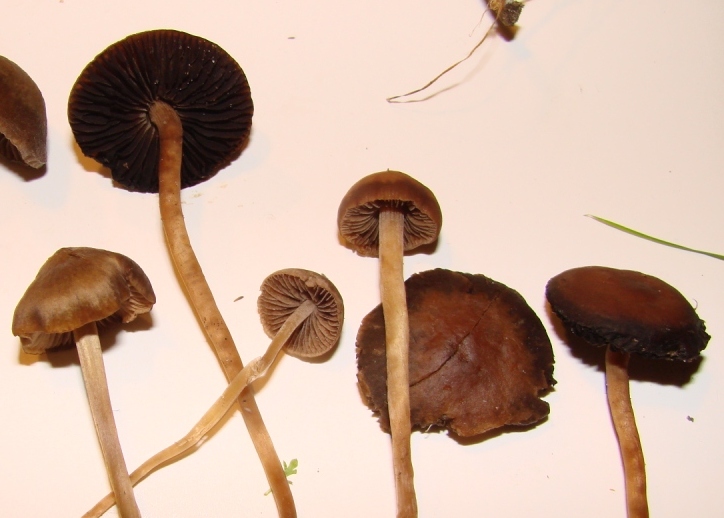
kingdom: Fungi
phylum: Basidiomycota
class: Agaricomycetes
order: Agaricales
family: Bolbitiaceae
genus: Panaeolina
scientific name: Panaeolina foenisecii
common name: høslætsvamp
